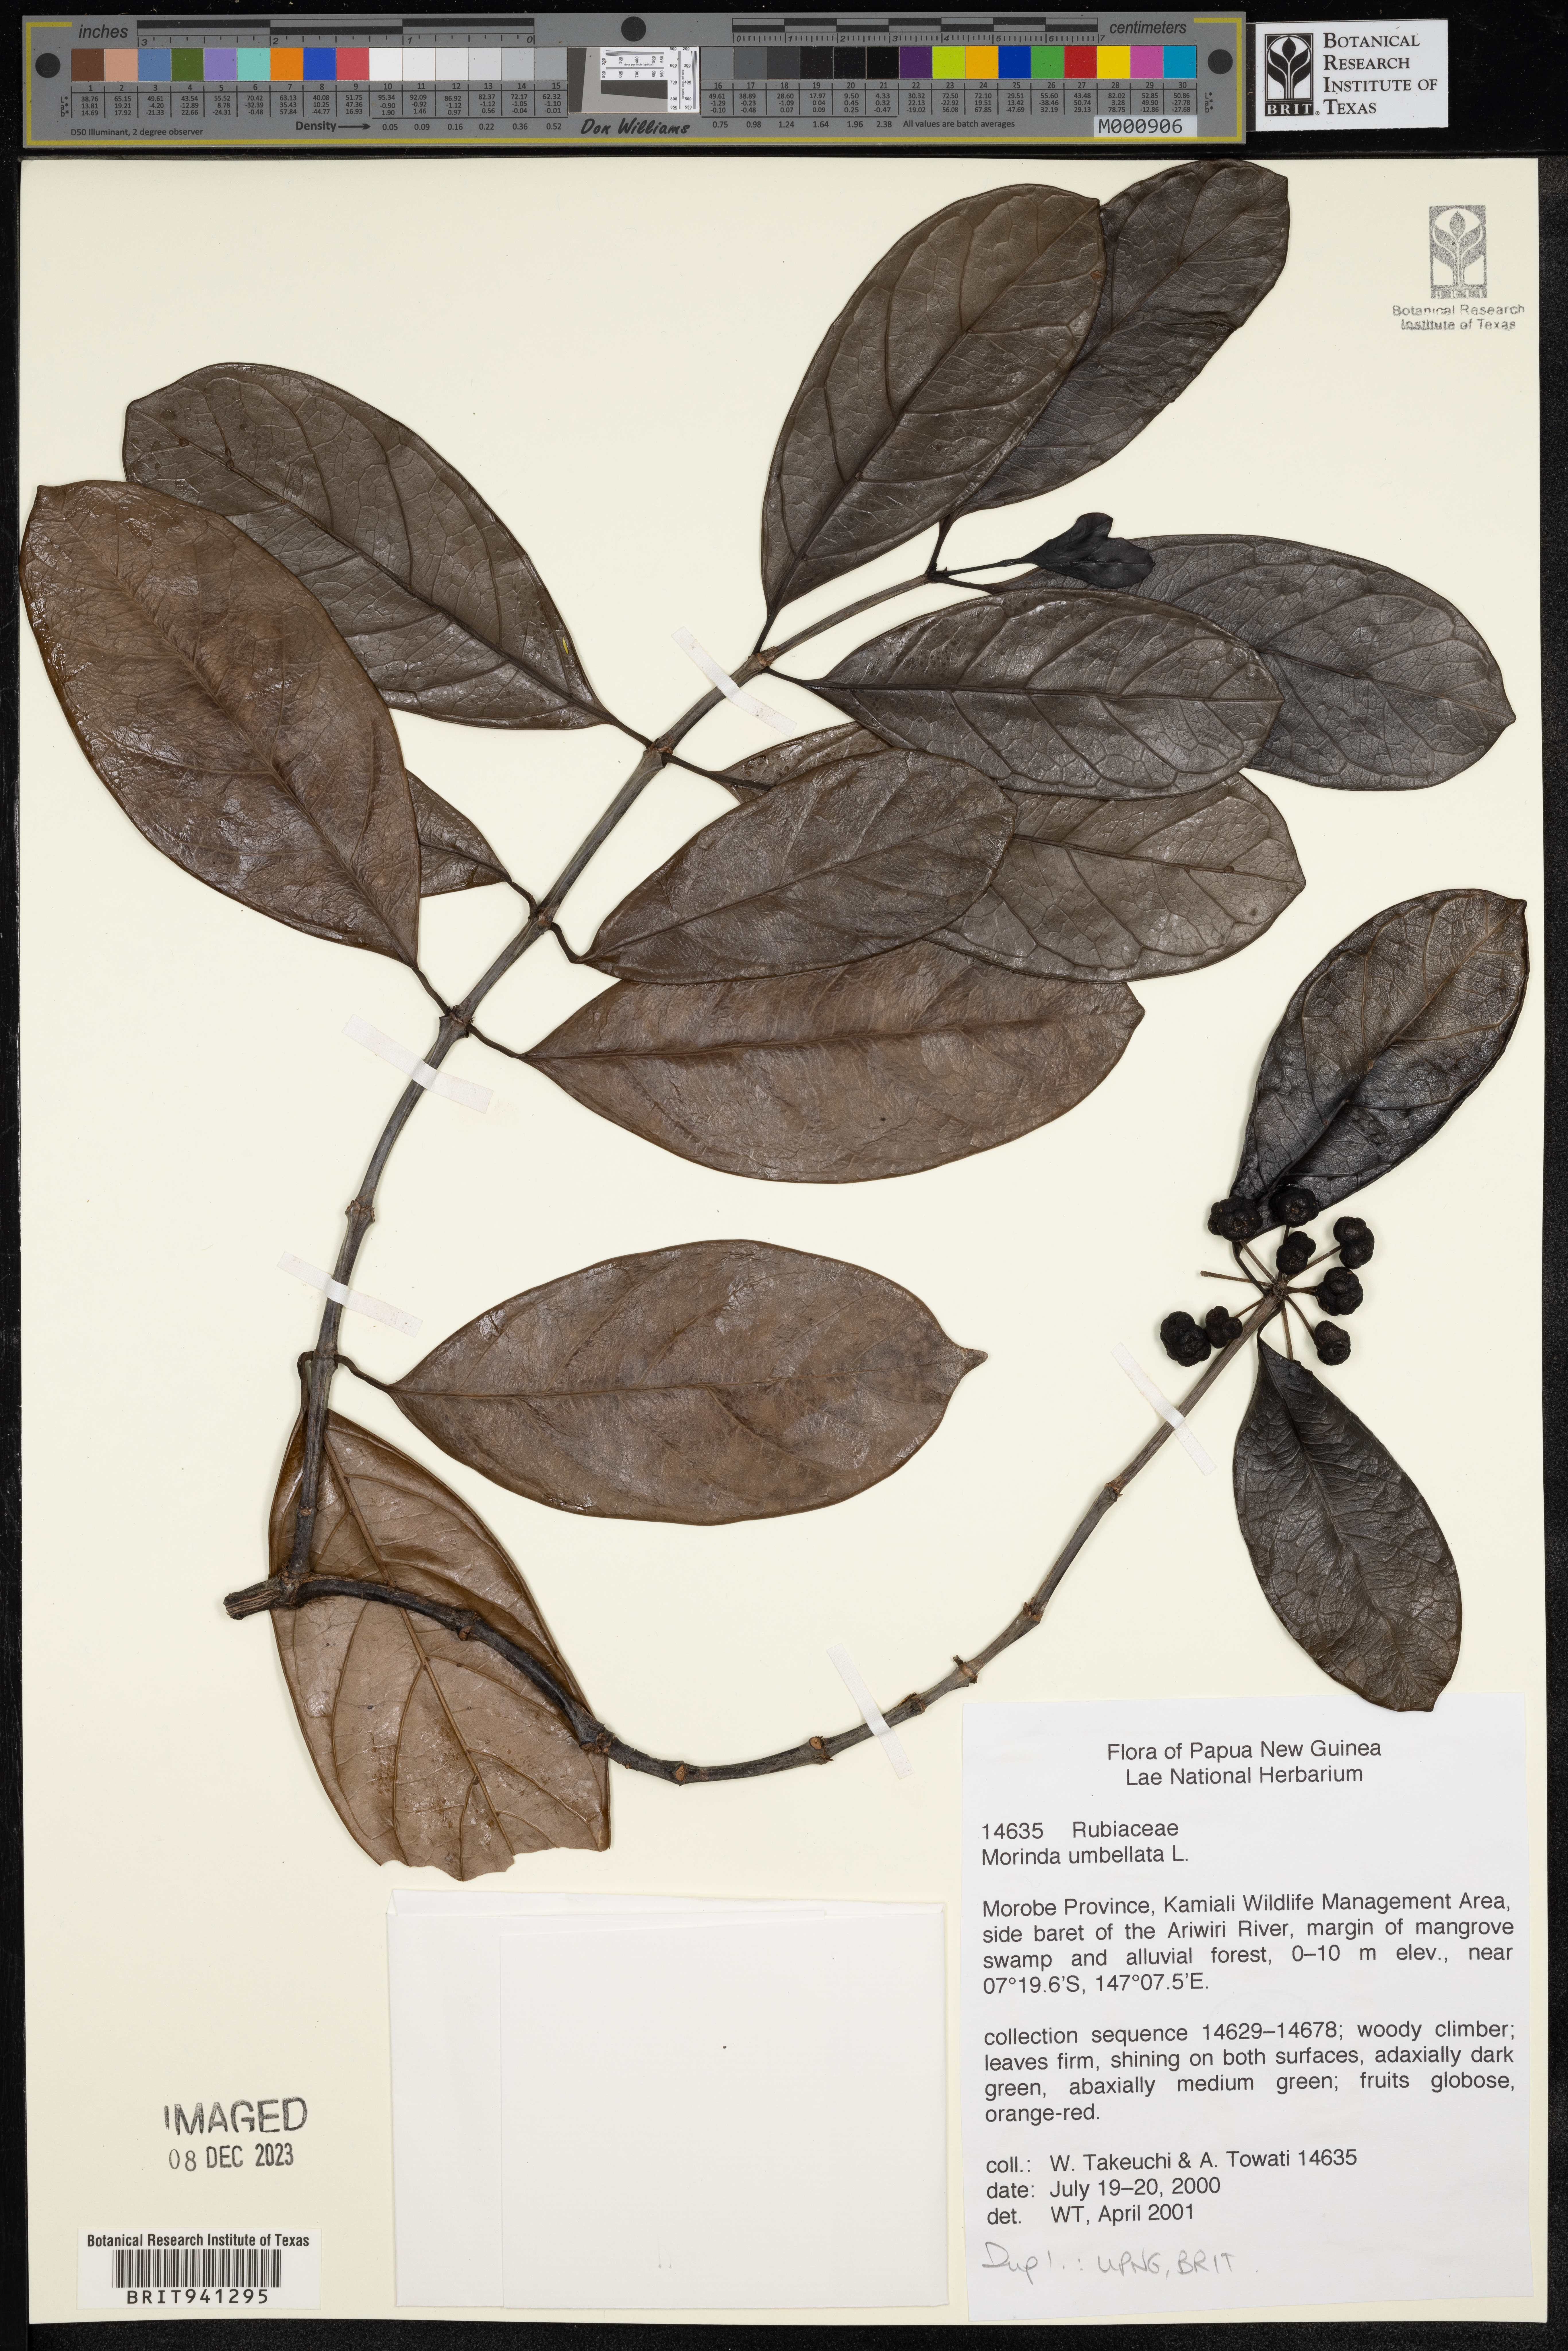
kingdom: Plantae
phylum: Tracheophyta
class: Magnoliopsida
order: Gentianales
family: Rubiaceae
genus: Morinda
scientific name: Morinda
